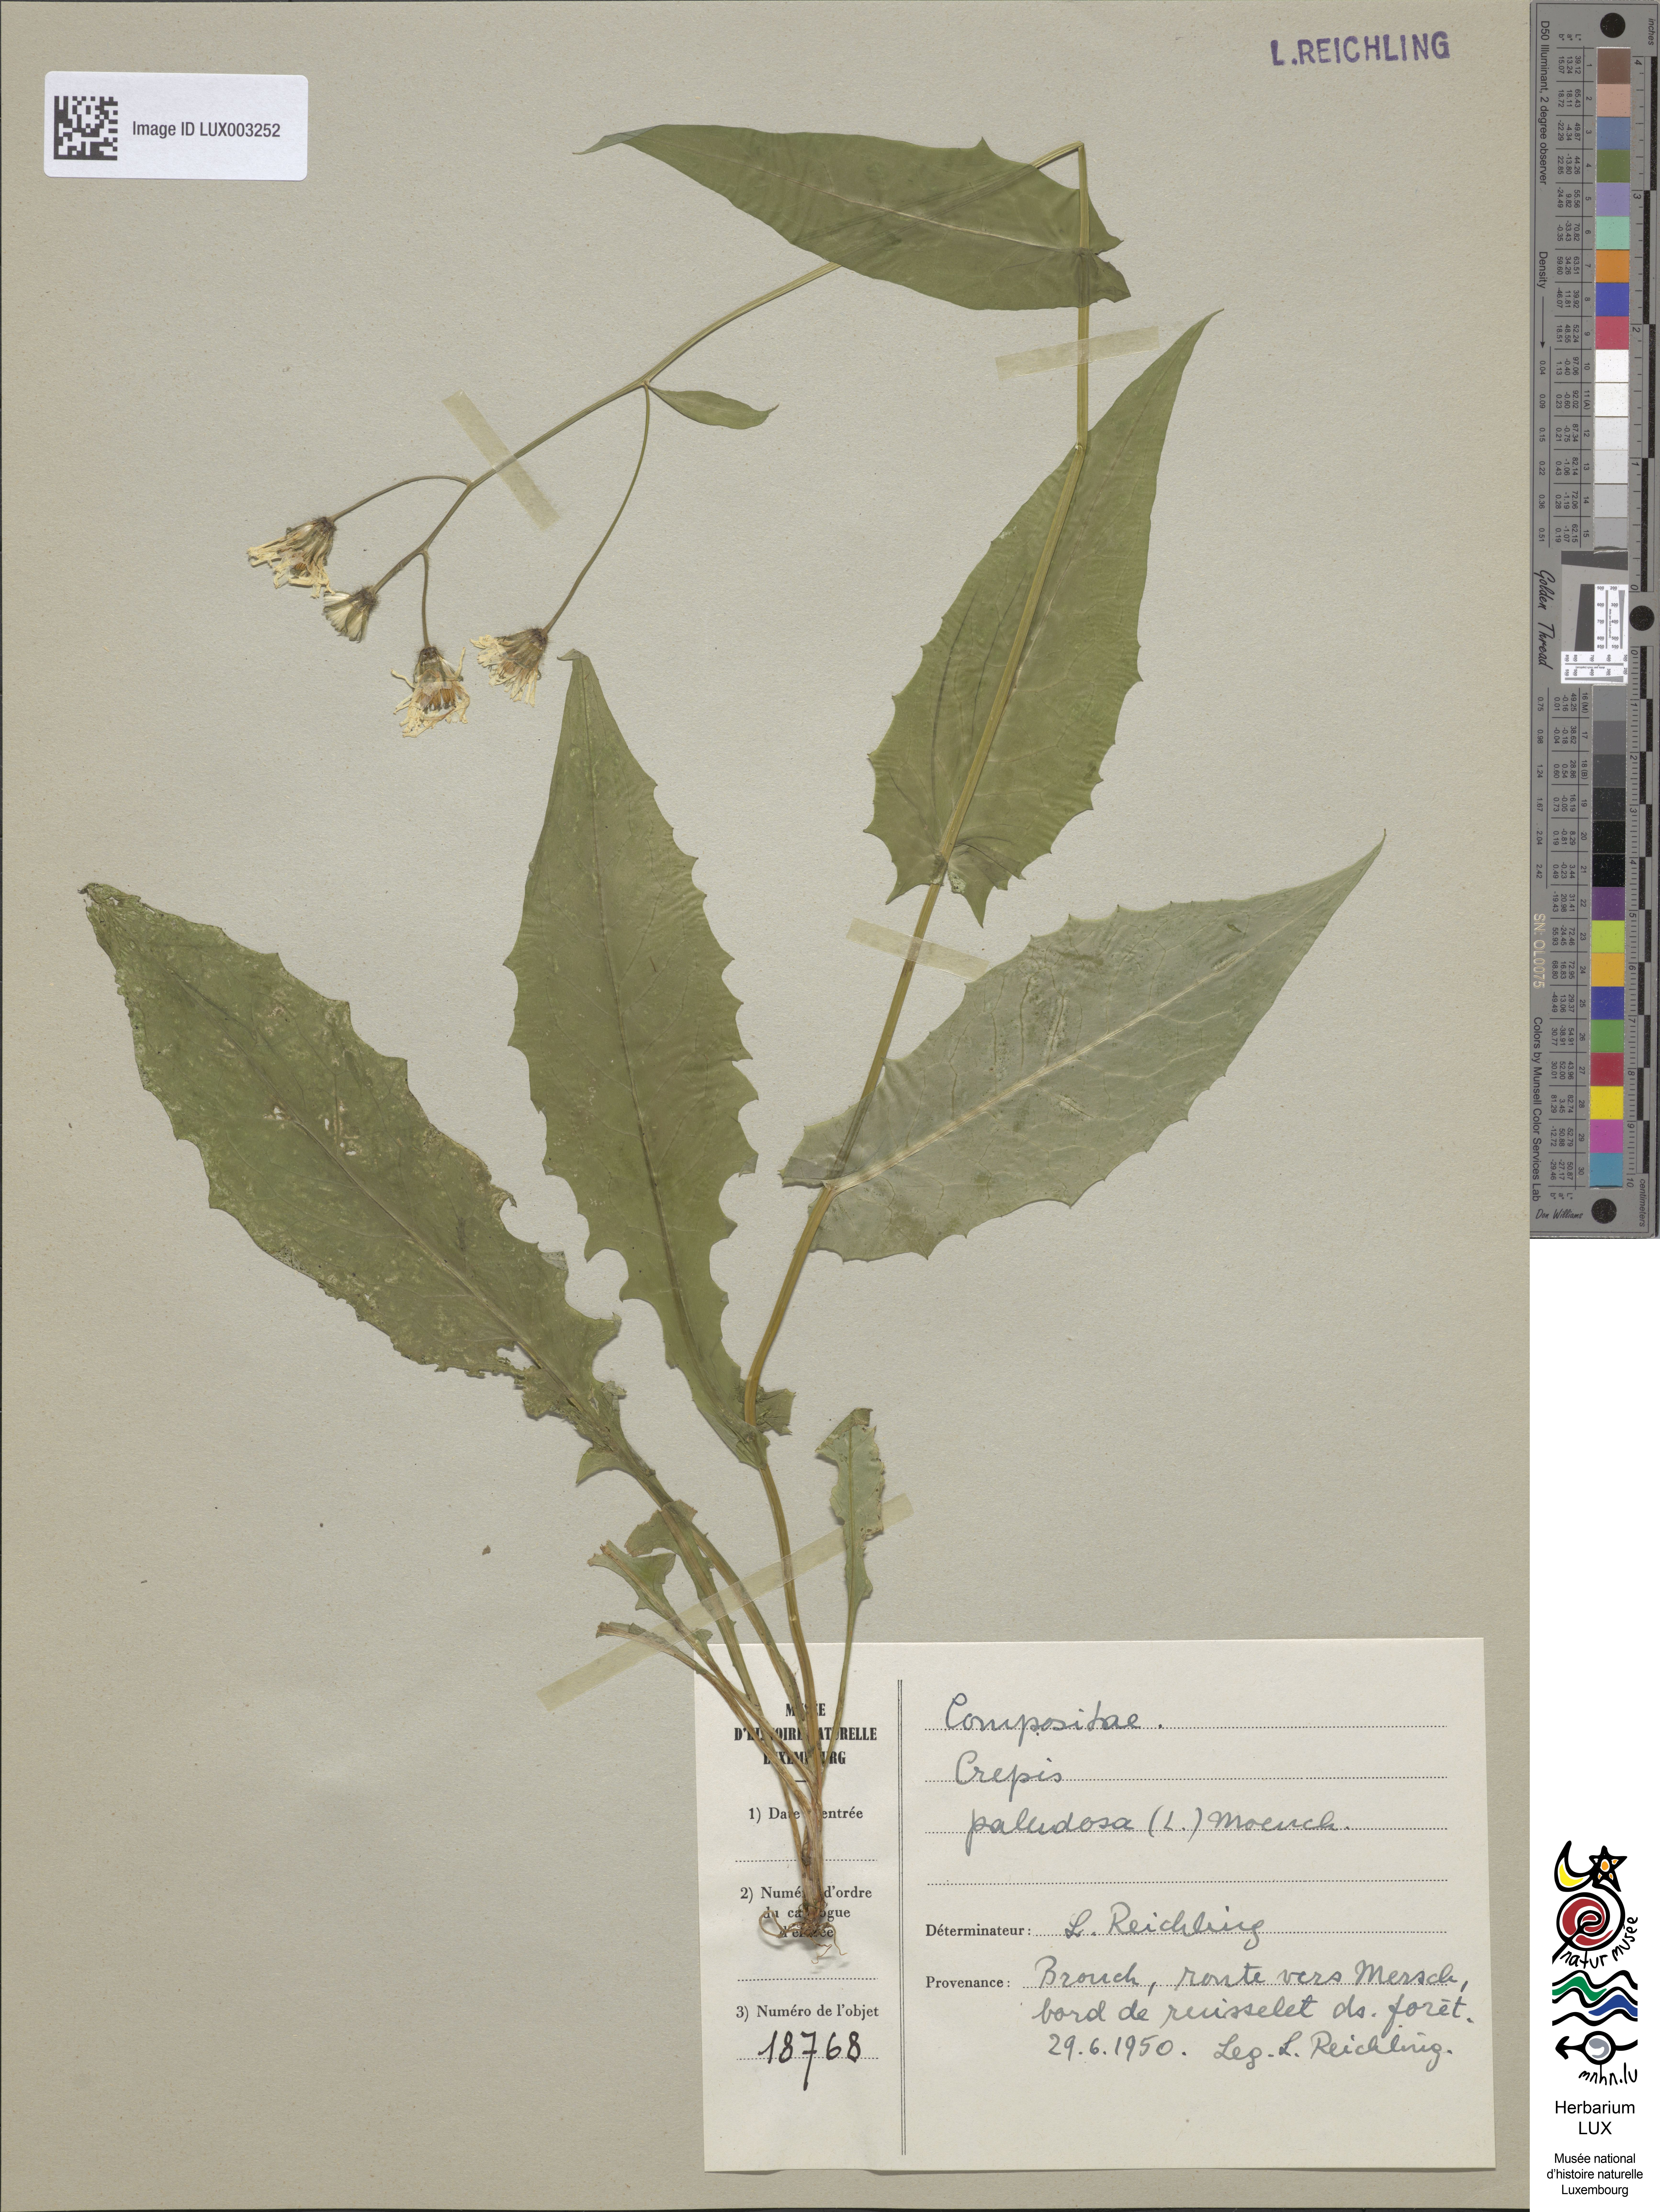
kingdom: Plantae
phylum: Tracheophyta
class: Magnoliopsida
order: Asterales
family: Asteraceae
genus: Crepis
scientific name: Crepis paludosa
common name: Marsh hawk's-beard
